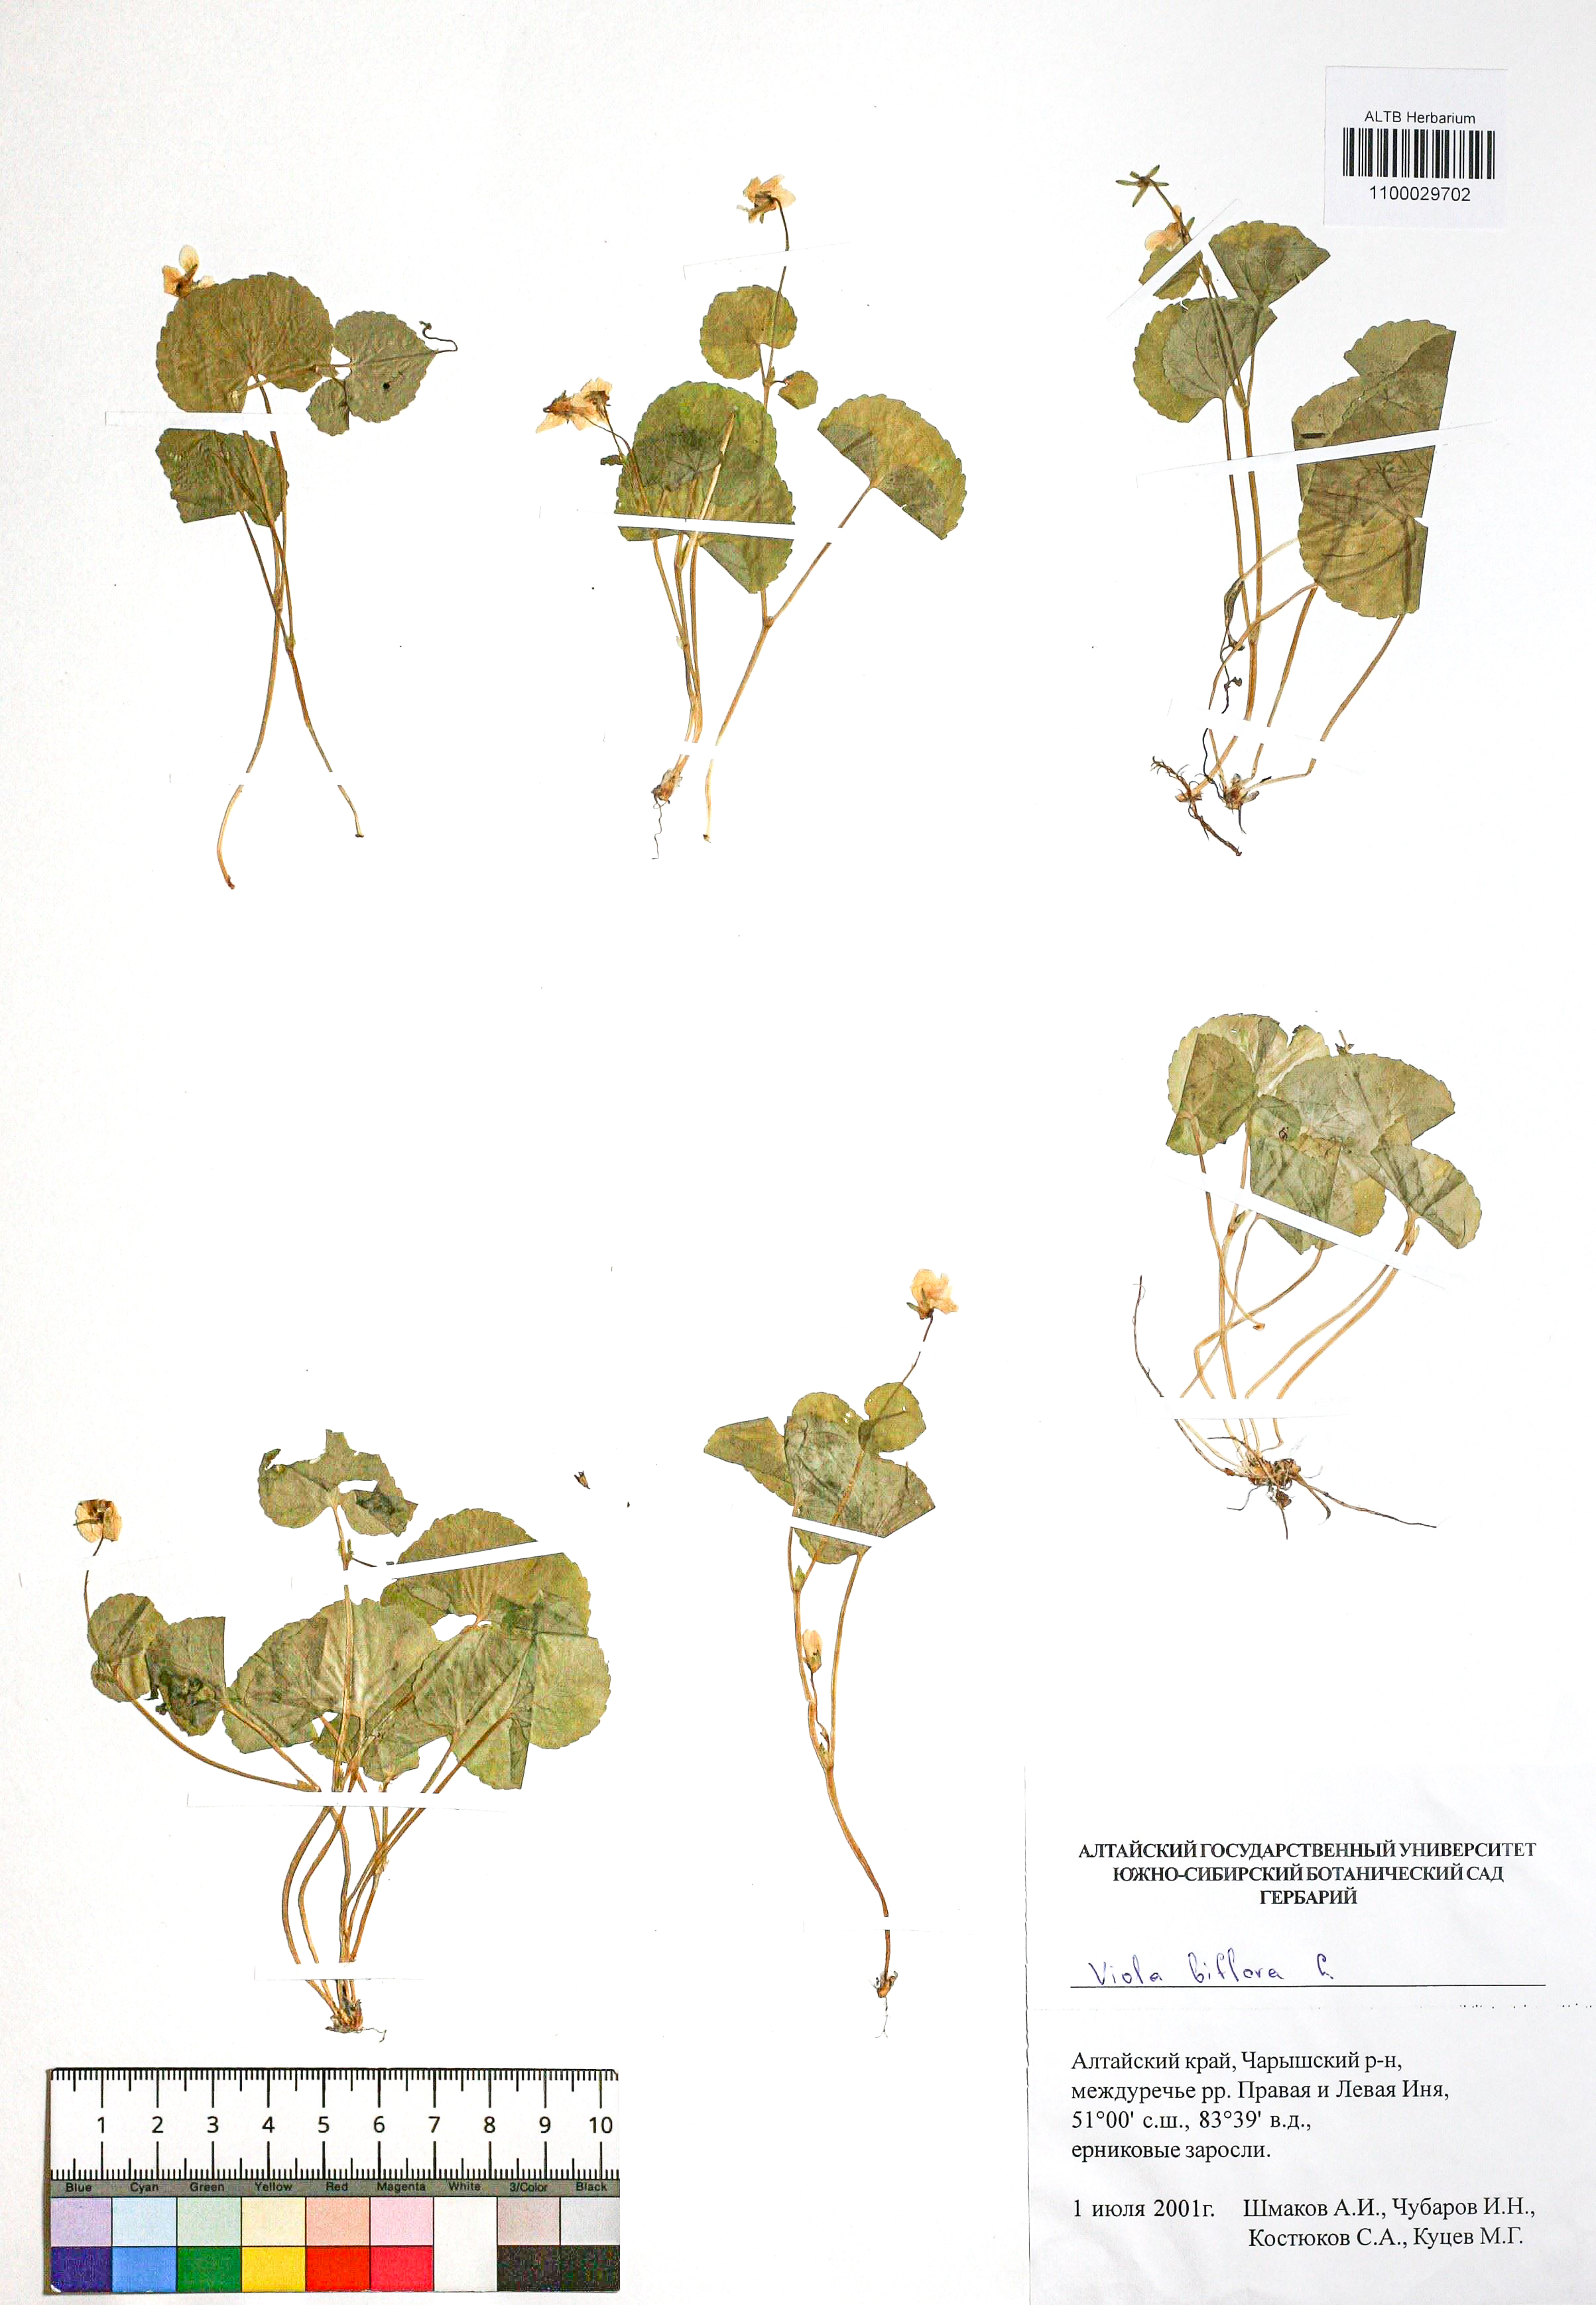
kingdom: Plantae
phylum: Tracheophyta
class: Magnoliopsida
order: Malpighiales
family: Violaceae
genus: Viola
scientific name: Viola biflora
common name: Alpine yellow violet
